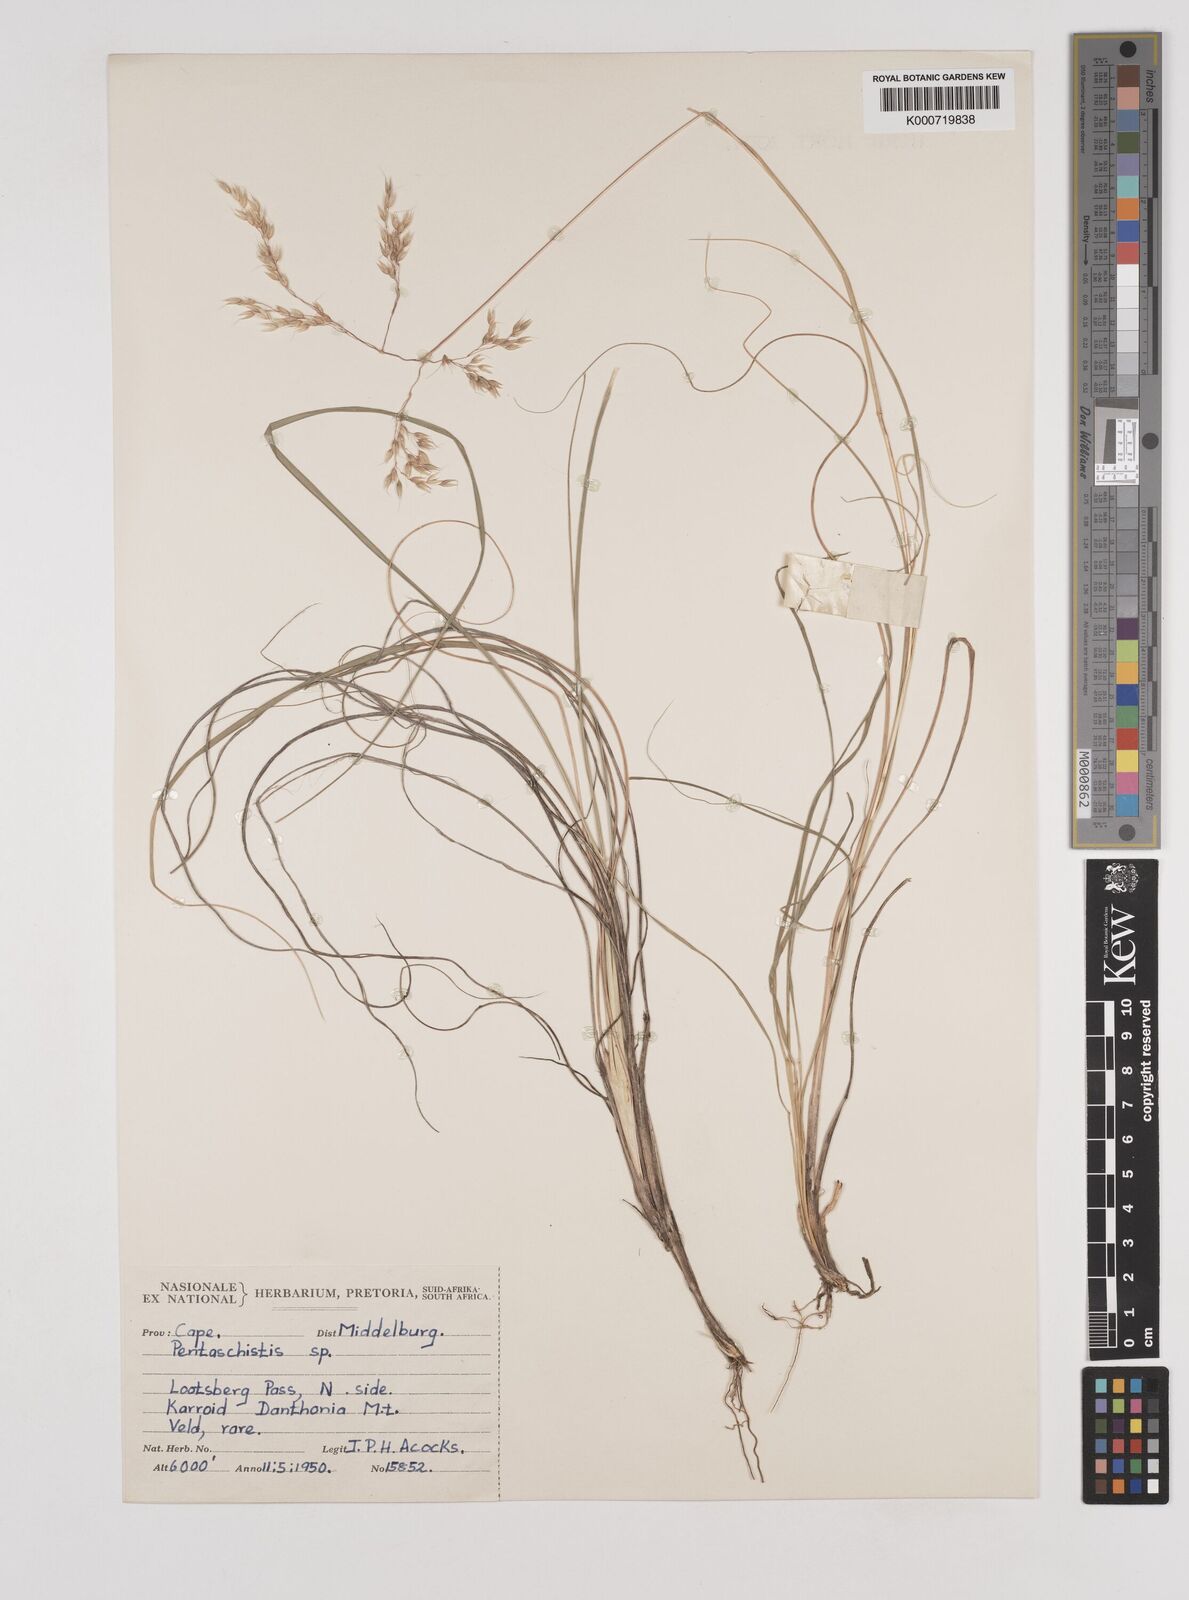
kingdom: Plantae
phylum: Tracheophyta
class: Liliopsida
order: Poales
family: Poaceae
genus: Pentaschistis
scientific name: Pentaschistis
